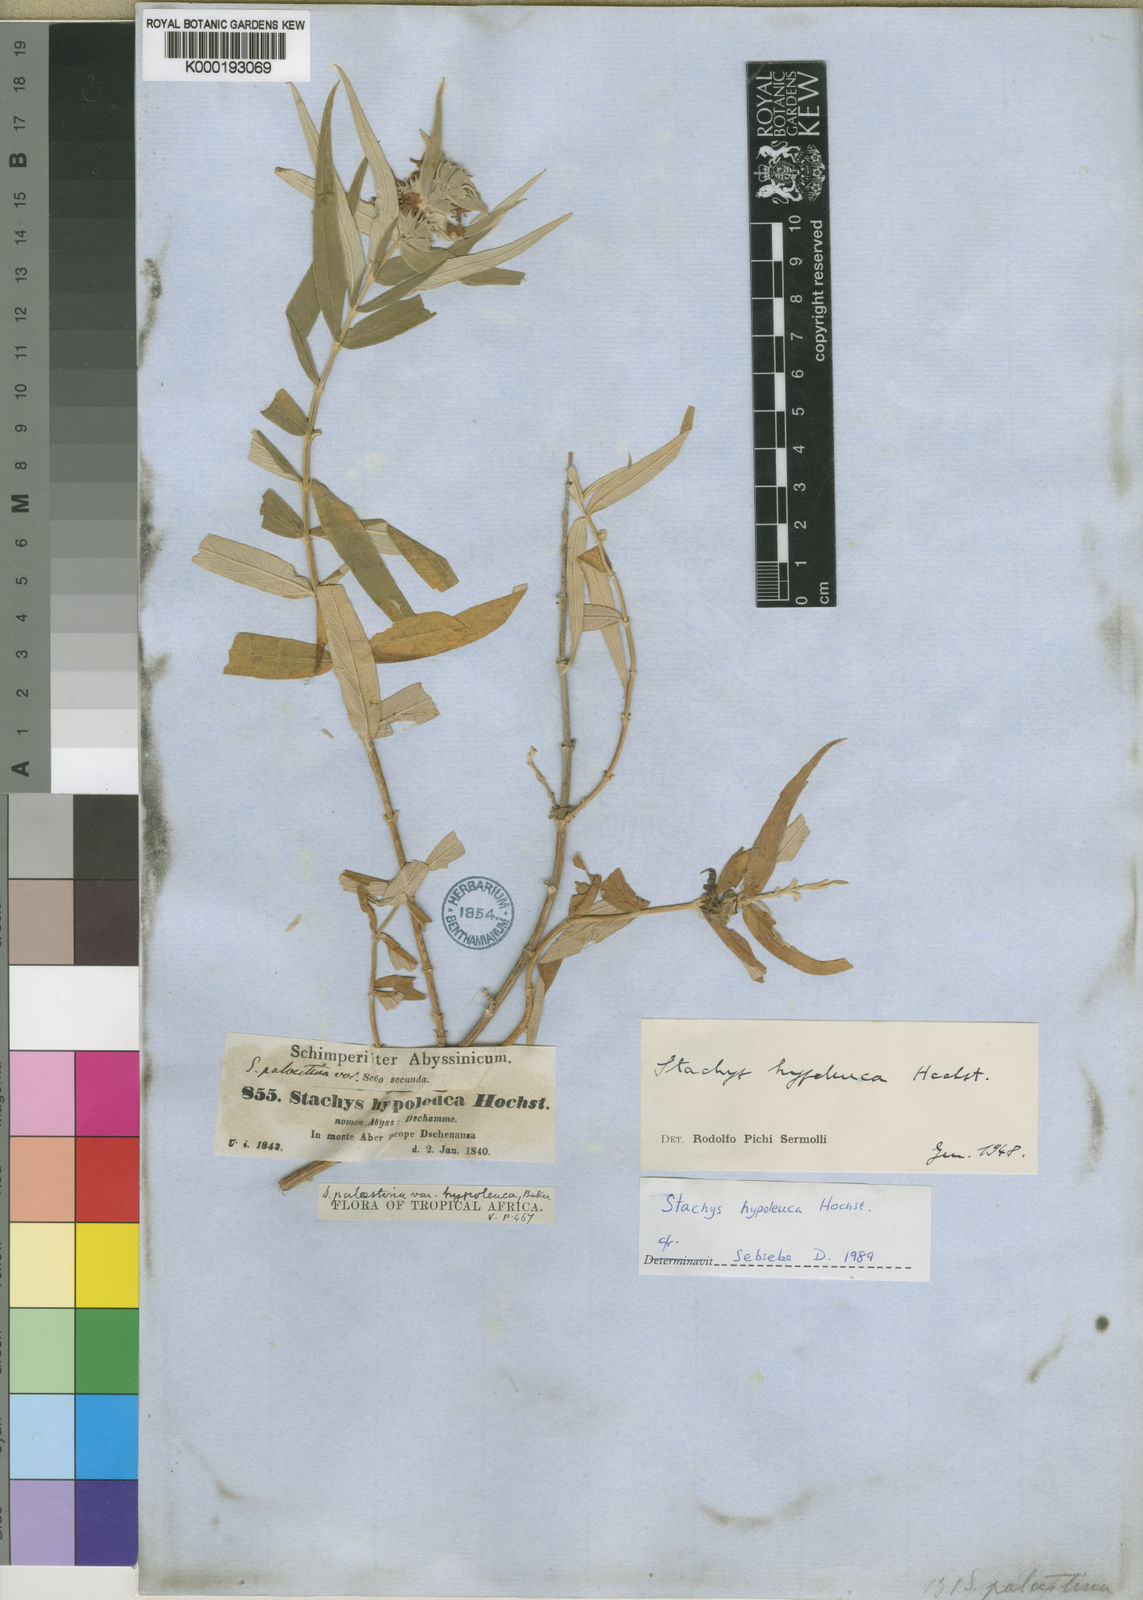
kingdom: Plantae
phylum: Tracheophyta
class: Magnoliopsida
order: Lamiales
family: Lamiaceae
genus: Stachys
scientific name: Stachys hypoleuca
